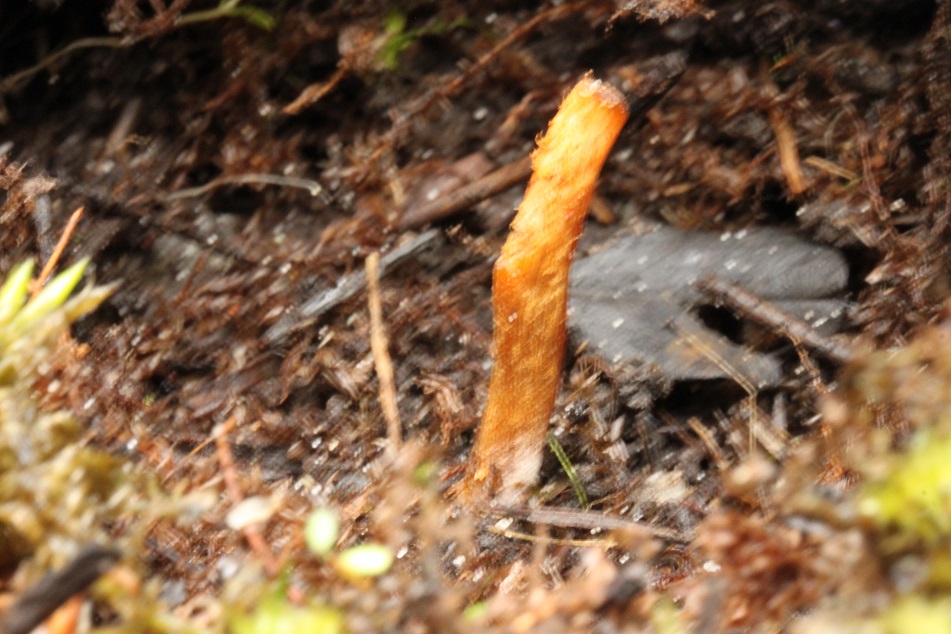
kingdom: Fungi
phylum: Basidiomycota
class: Agaricomycetes
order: Agaricales
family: Cortinariaceae
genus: Cortinarius
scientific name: Cortinarius saniosus
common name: gultrævlet slørhat
